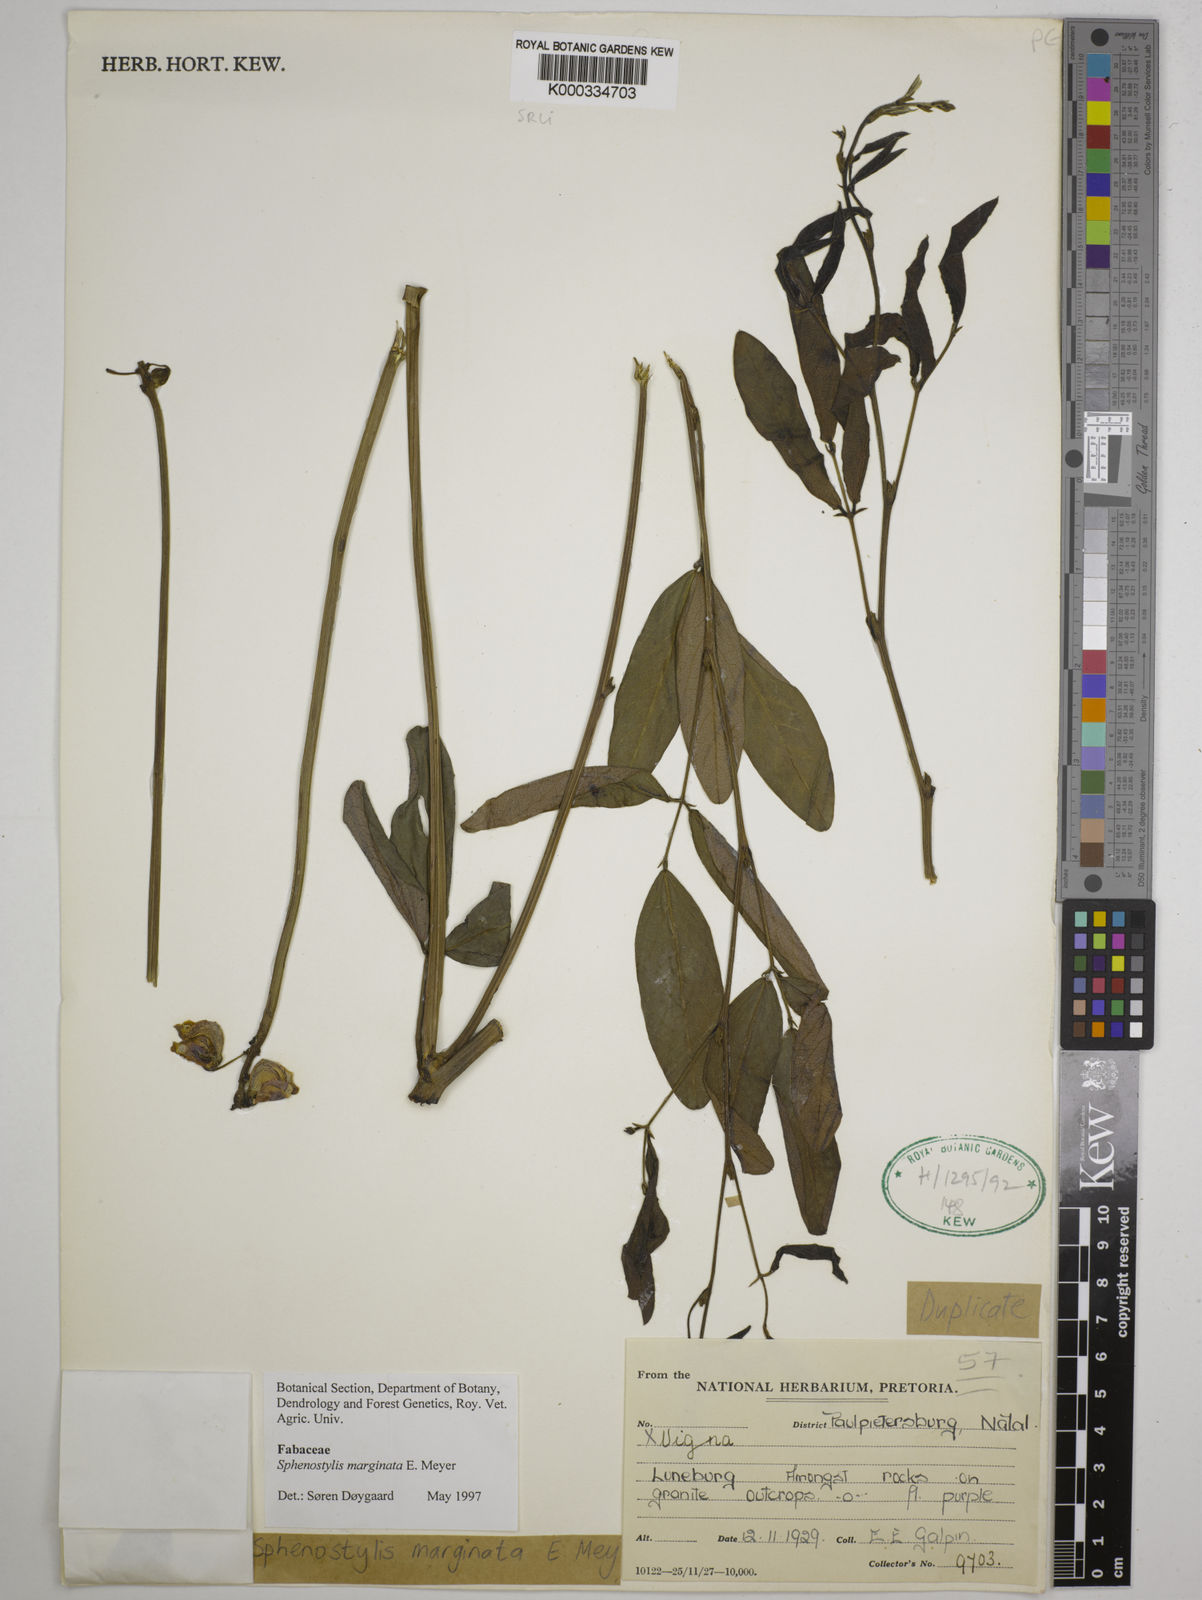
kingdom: Plantae
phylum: Tracheophyta
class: Magnoliopsida
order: Fabales
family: Fabaceae
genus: Sphenostylis
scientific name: Sphenostylis marginata
